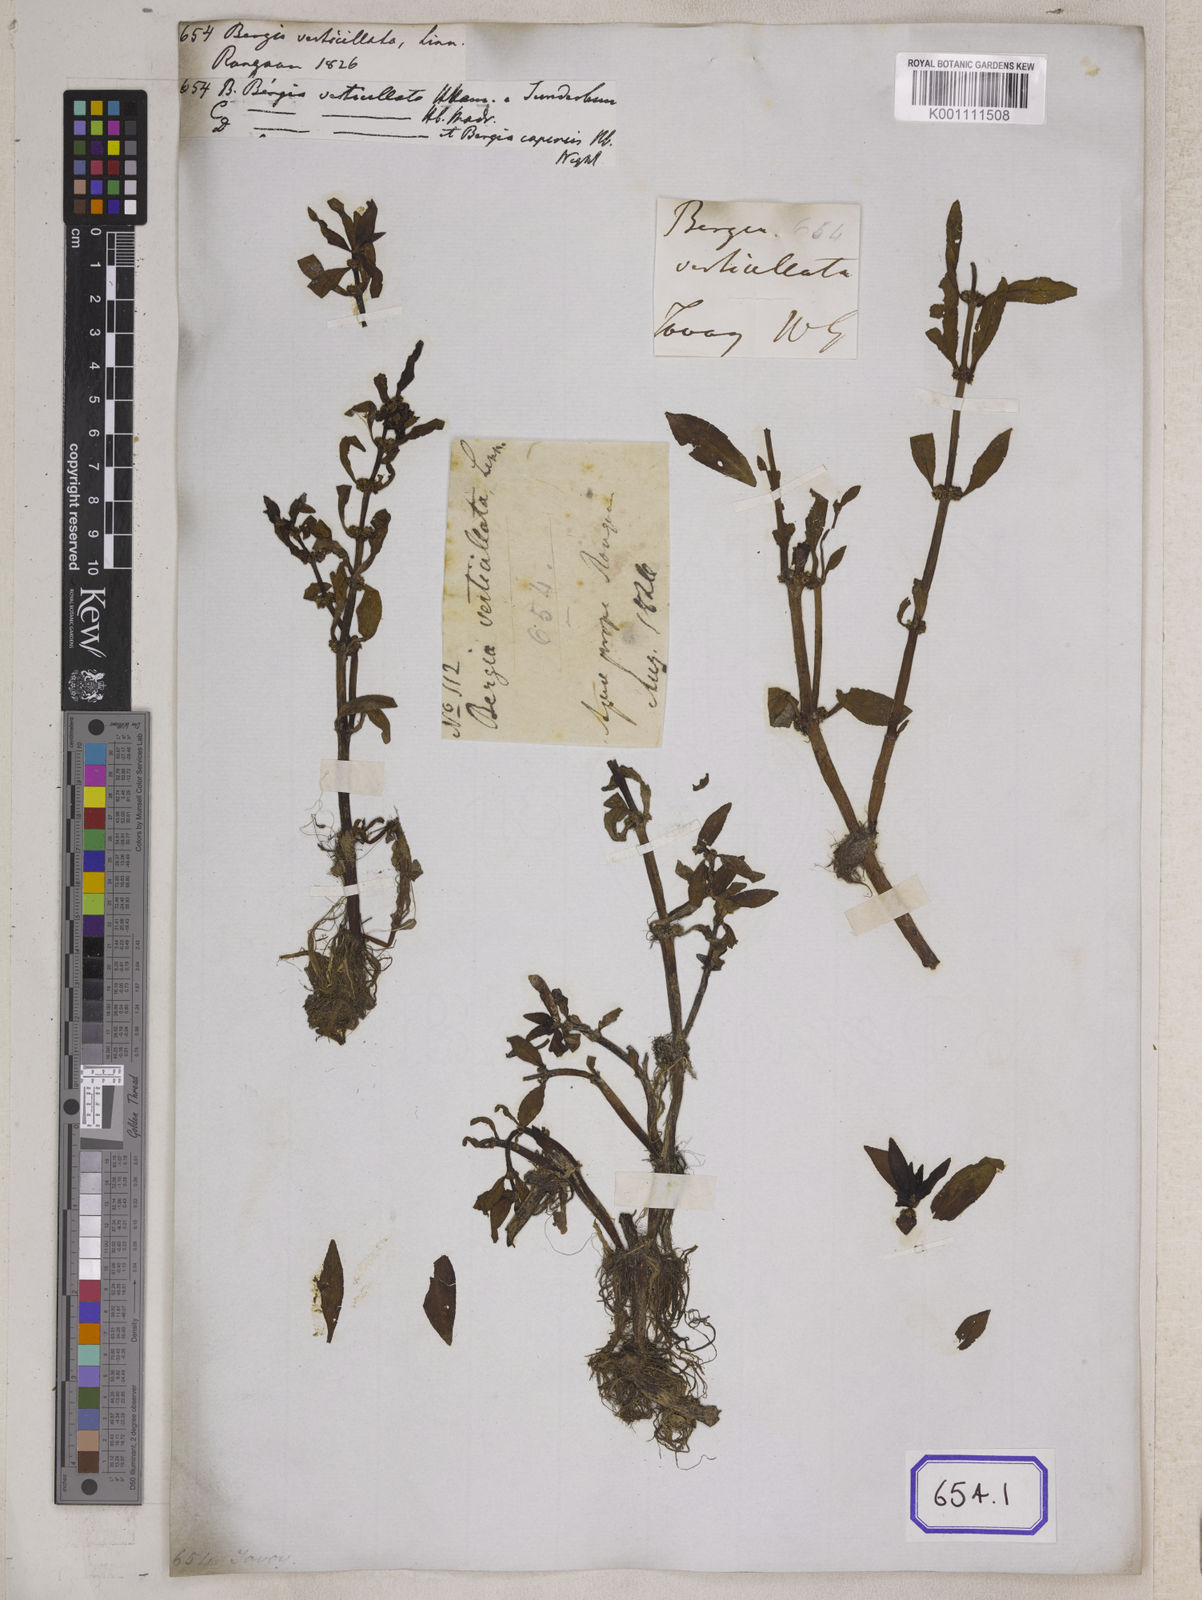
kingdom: Plantae
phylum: Tracheophyta
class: Magnoliopsida
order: Malpighiales
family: Elatinaceae
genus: Bergia
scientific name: Bergia
